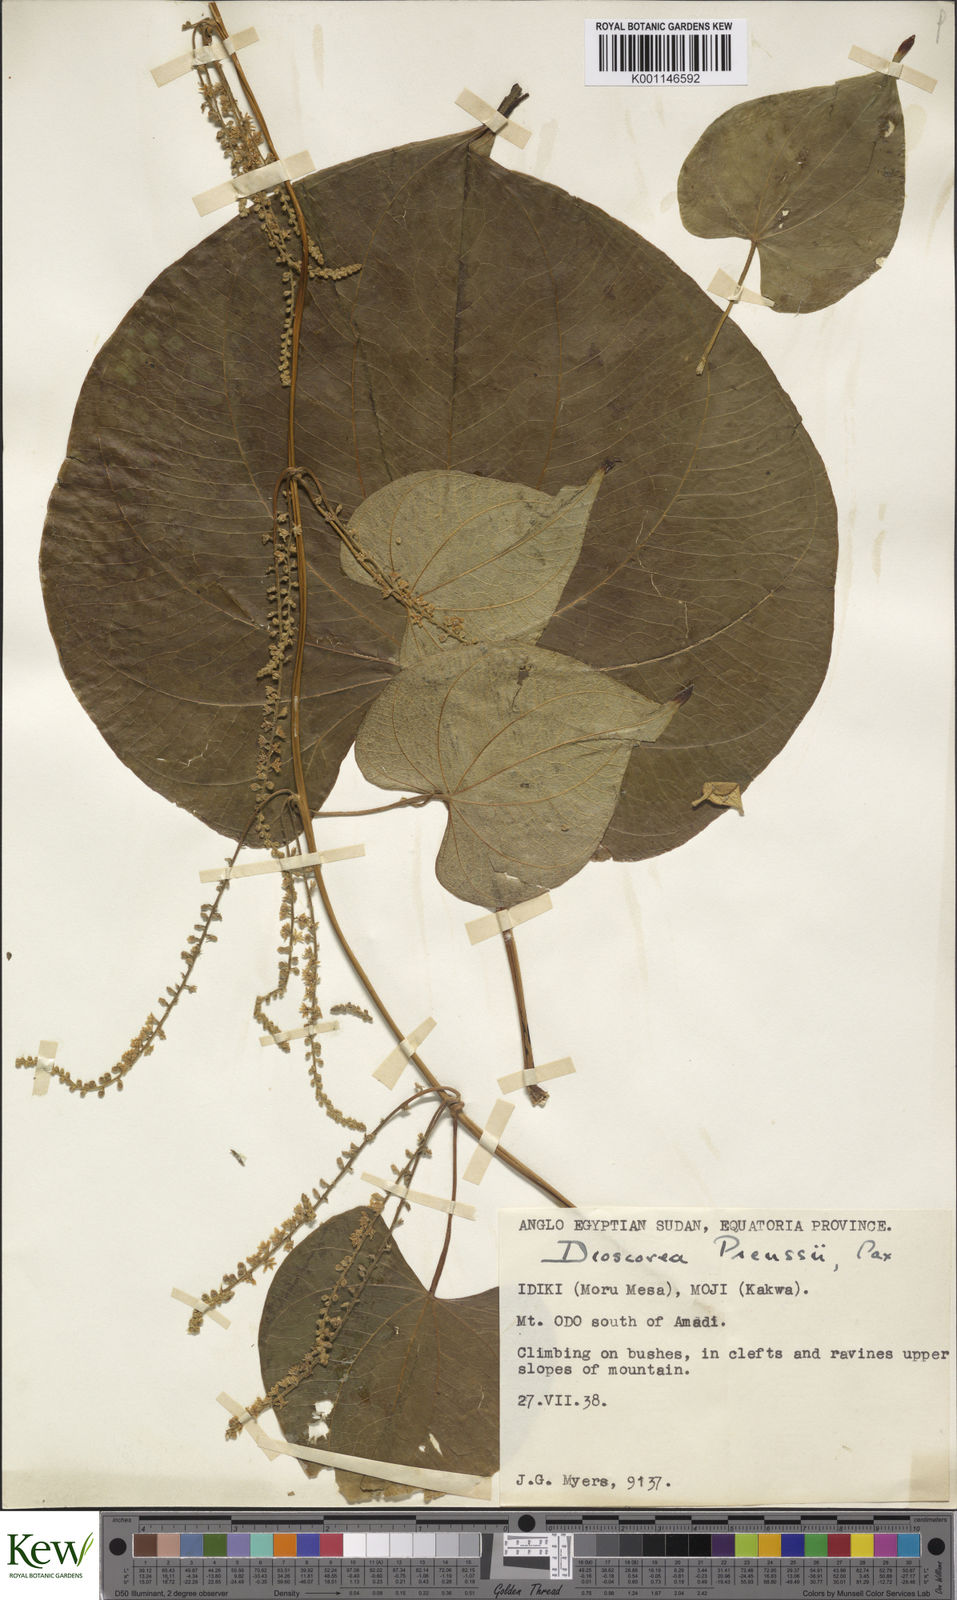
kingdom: Plantae
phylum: Tracheophyta
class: Liliopsida
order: Dioscoreales
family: Dioscoreaceae
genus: Dioscorea
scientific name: Dioscorea preussii
